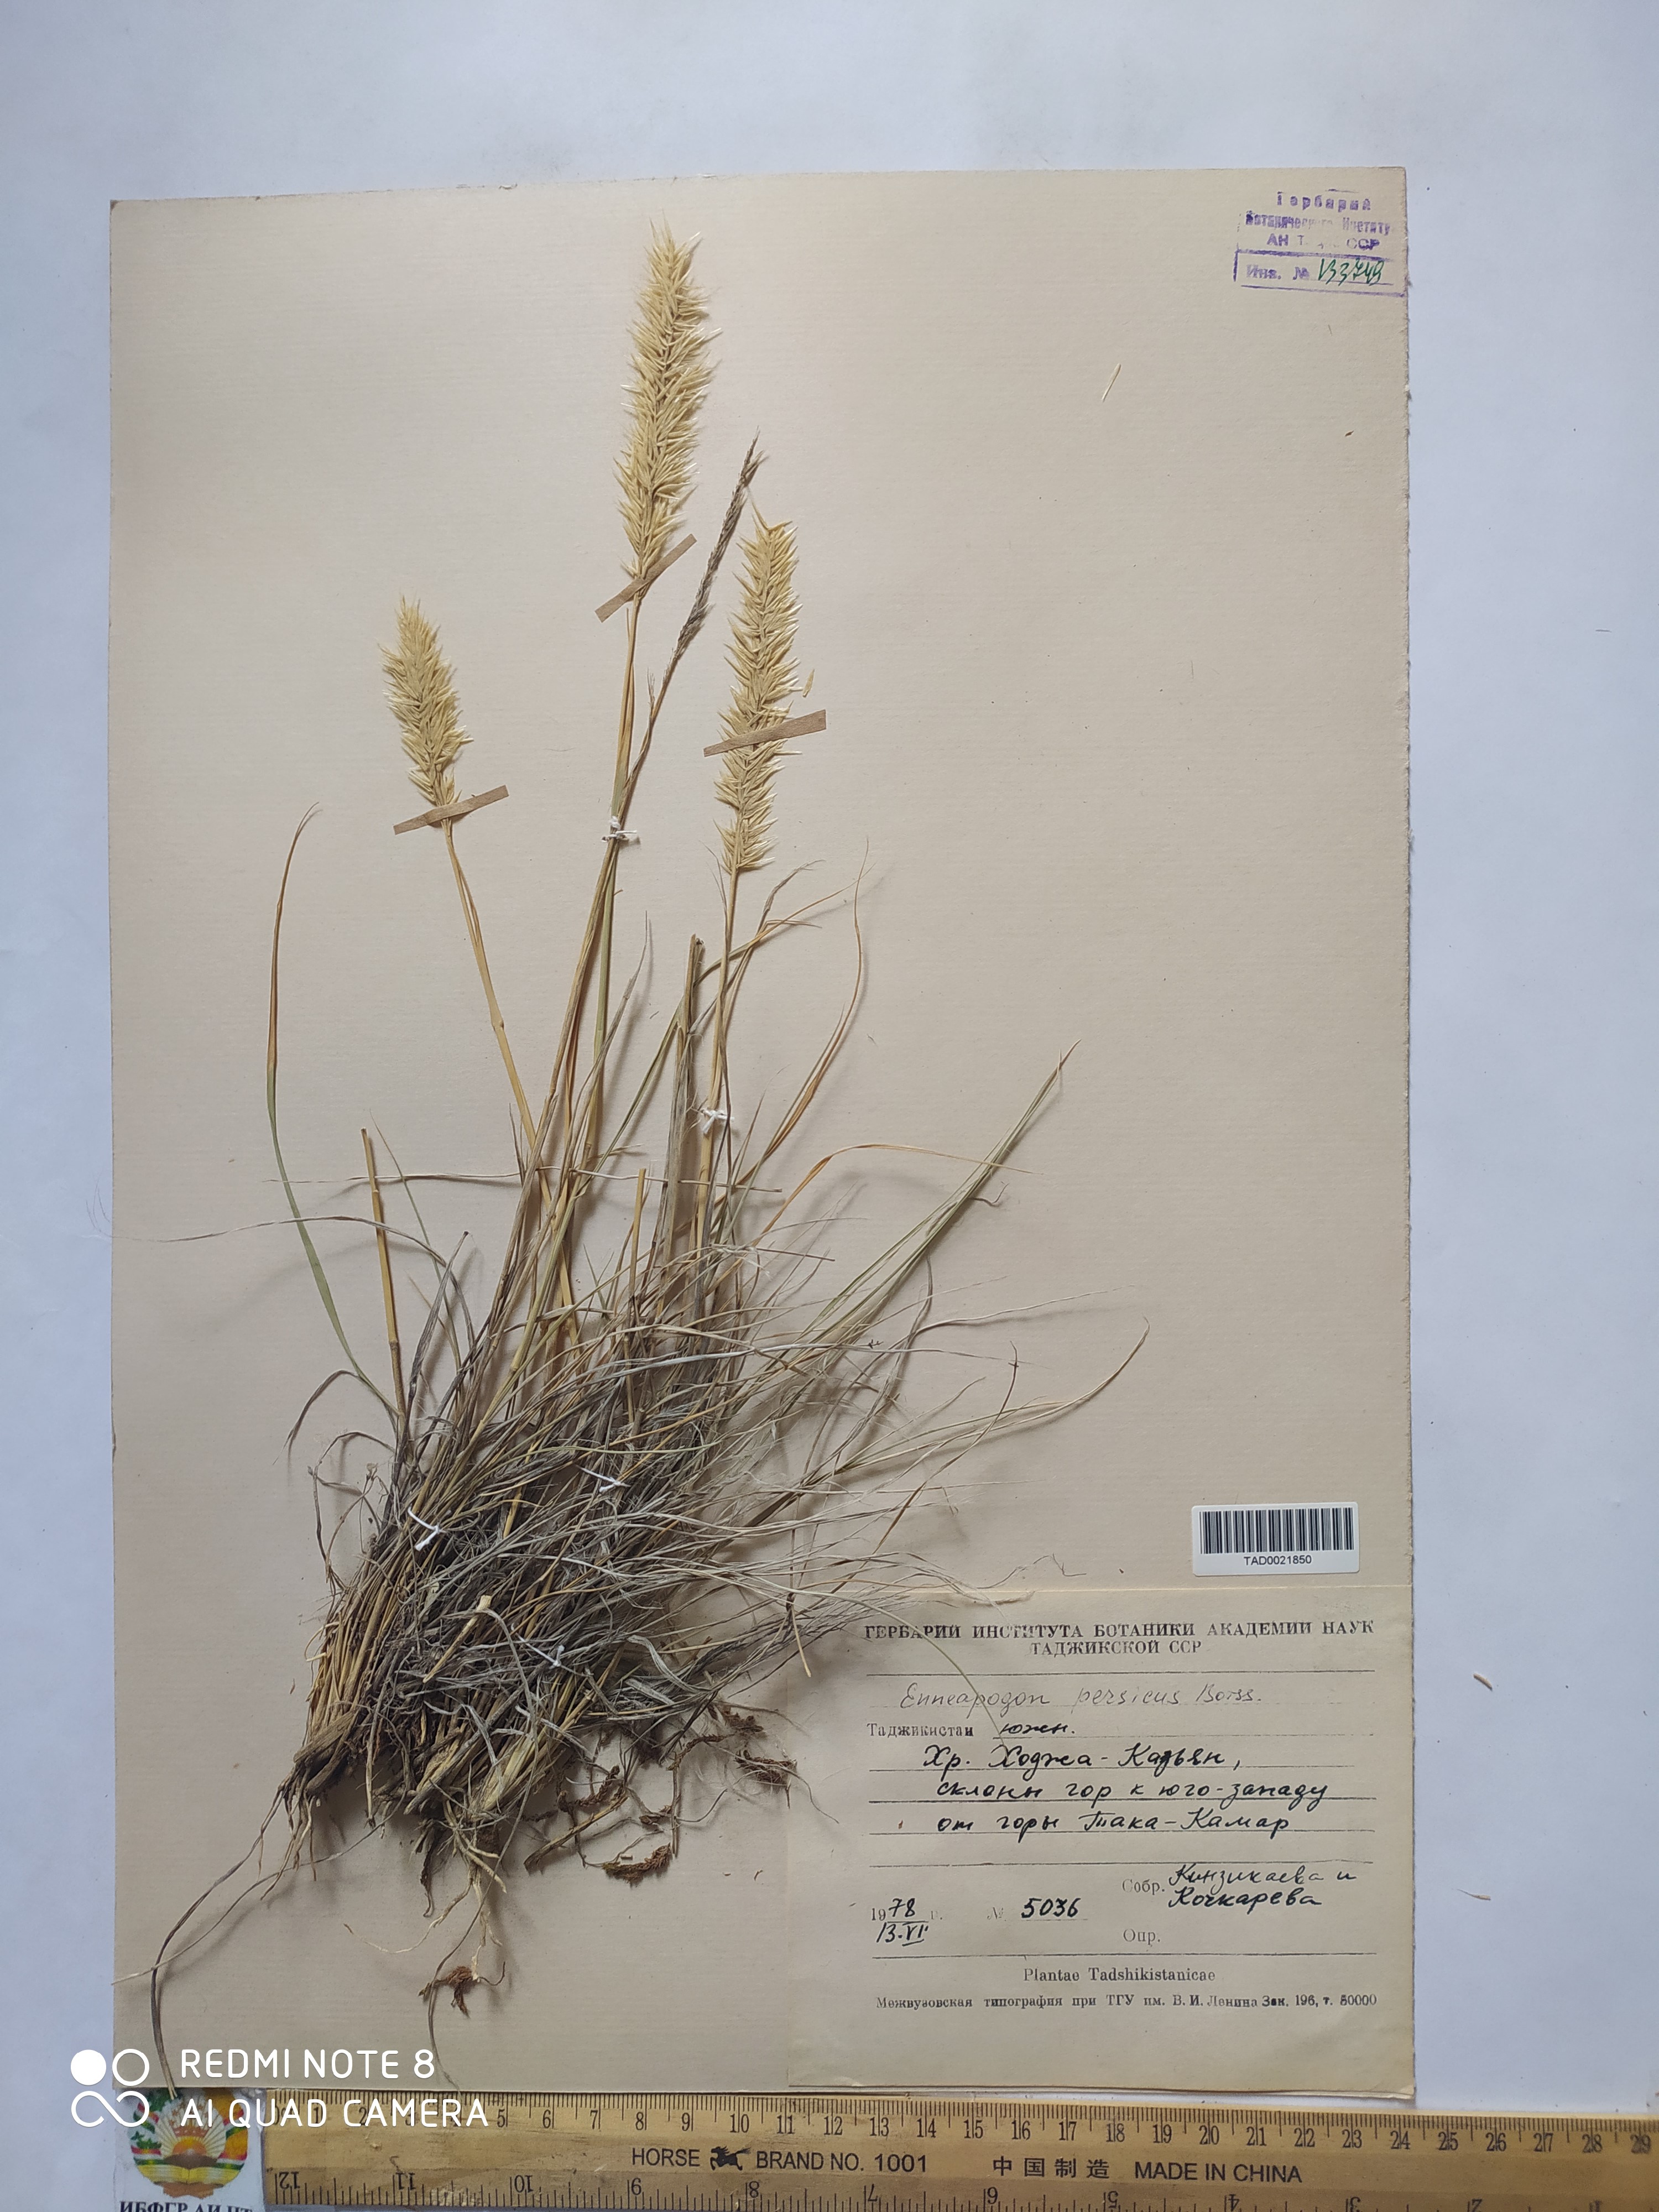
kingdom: Plantae
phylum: Tracheophyta
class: Liliopsida
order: Poales
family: Poaceae
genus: Enneapogon
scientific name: Enneapogon persicus
